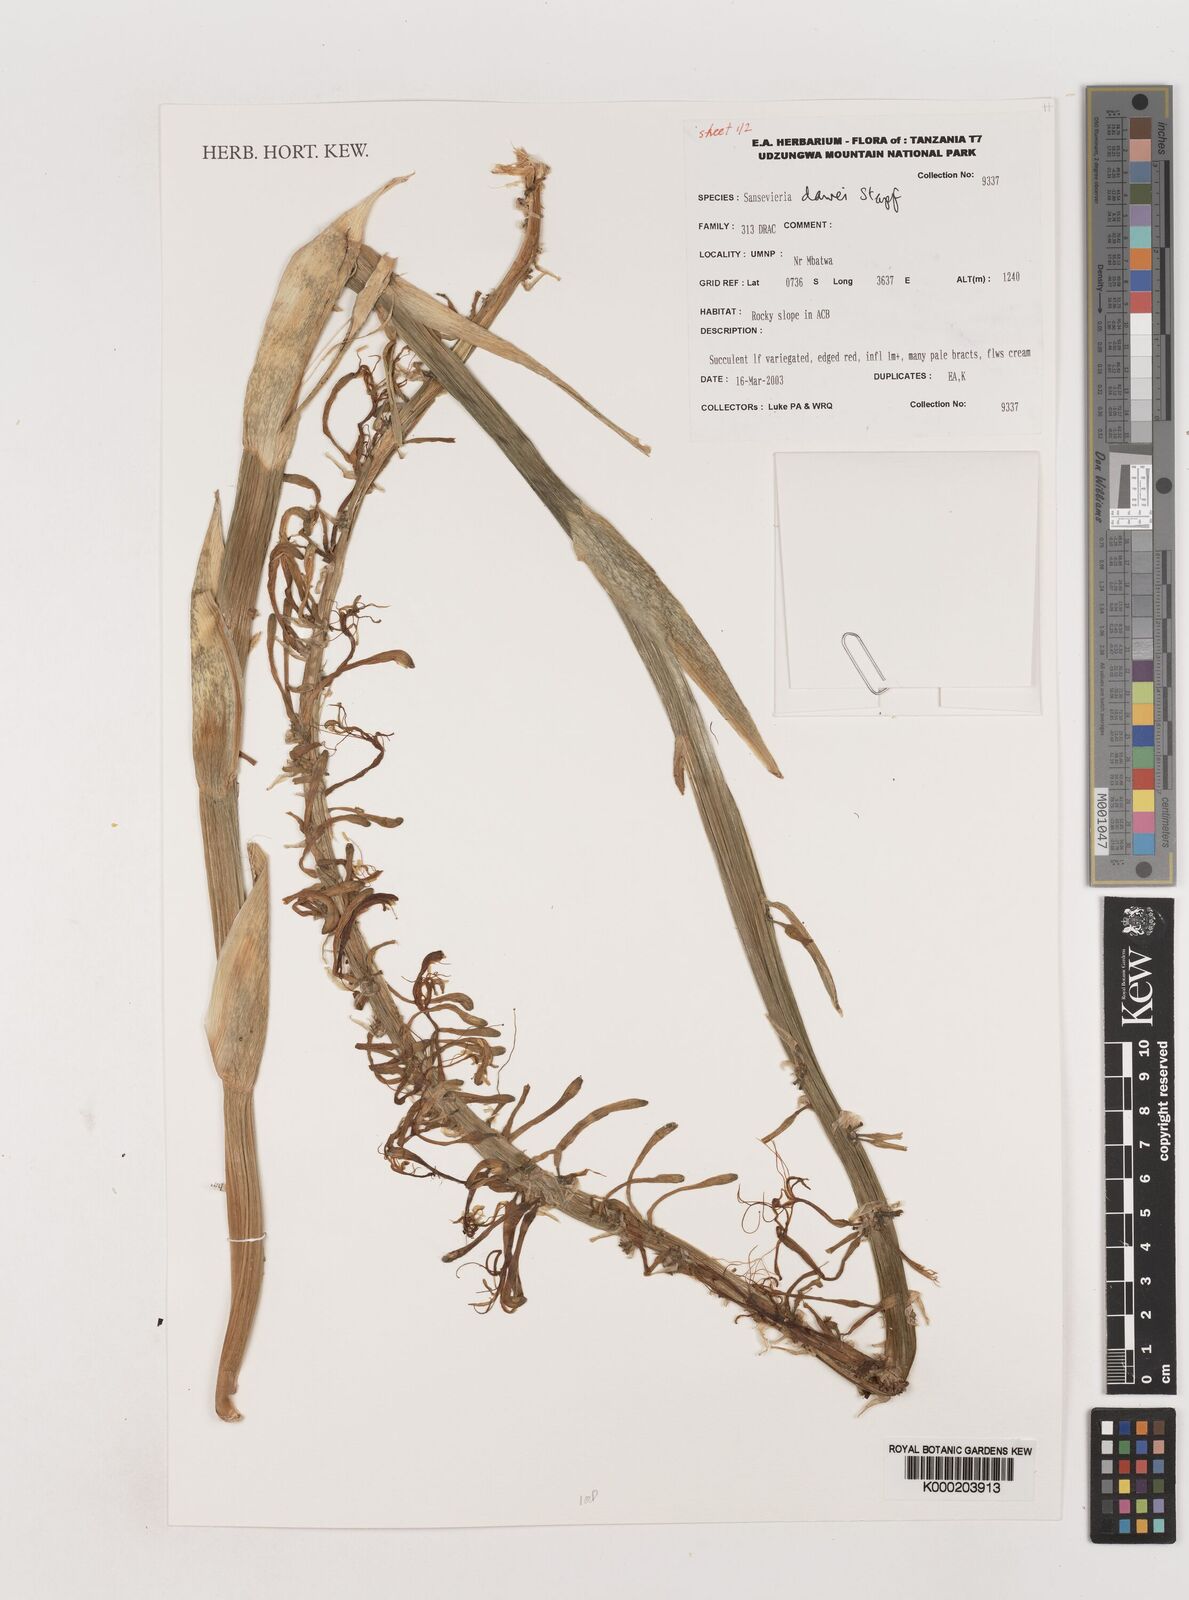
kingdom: Plantae
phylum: Tracheophyta
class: Liliopsida
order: Asparagales
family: Asparagaceae
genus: Dracaena
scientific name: Dracaena dawei
